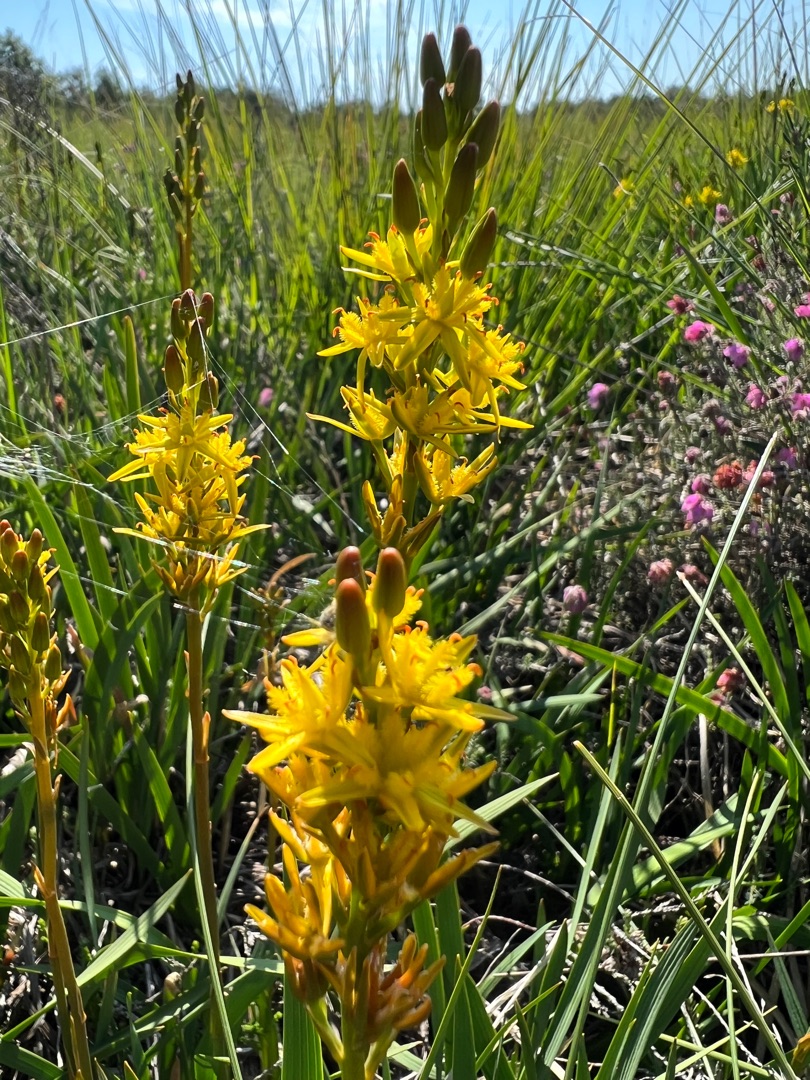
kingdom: Plantae
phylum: Tracheophyta
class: Liliopsida
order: Dioscoreales
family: Nartheciaceae
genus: Narthecium
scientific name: Narthecium ossifragum
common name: Benbræk
